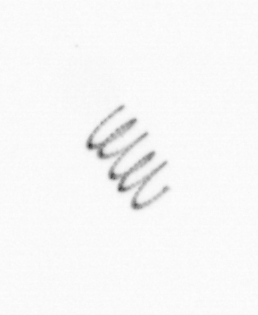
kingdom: Chromista
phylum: Ochrophyta
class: Bacillariophyceae
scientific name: Bacillariophyceae
